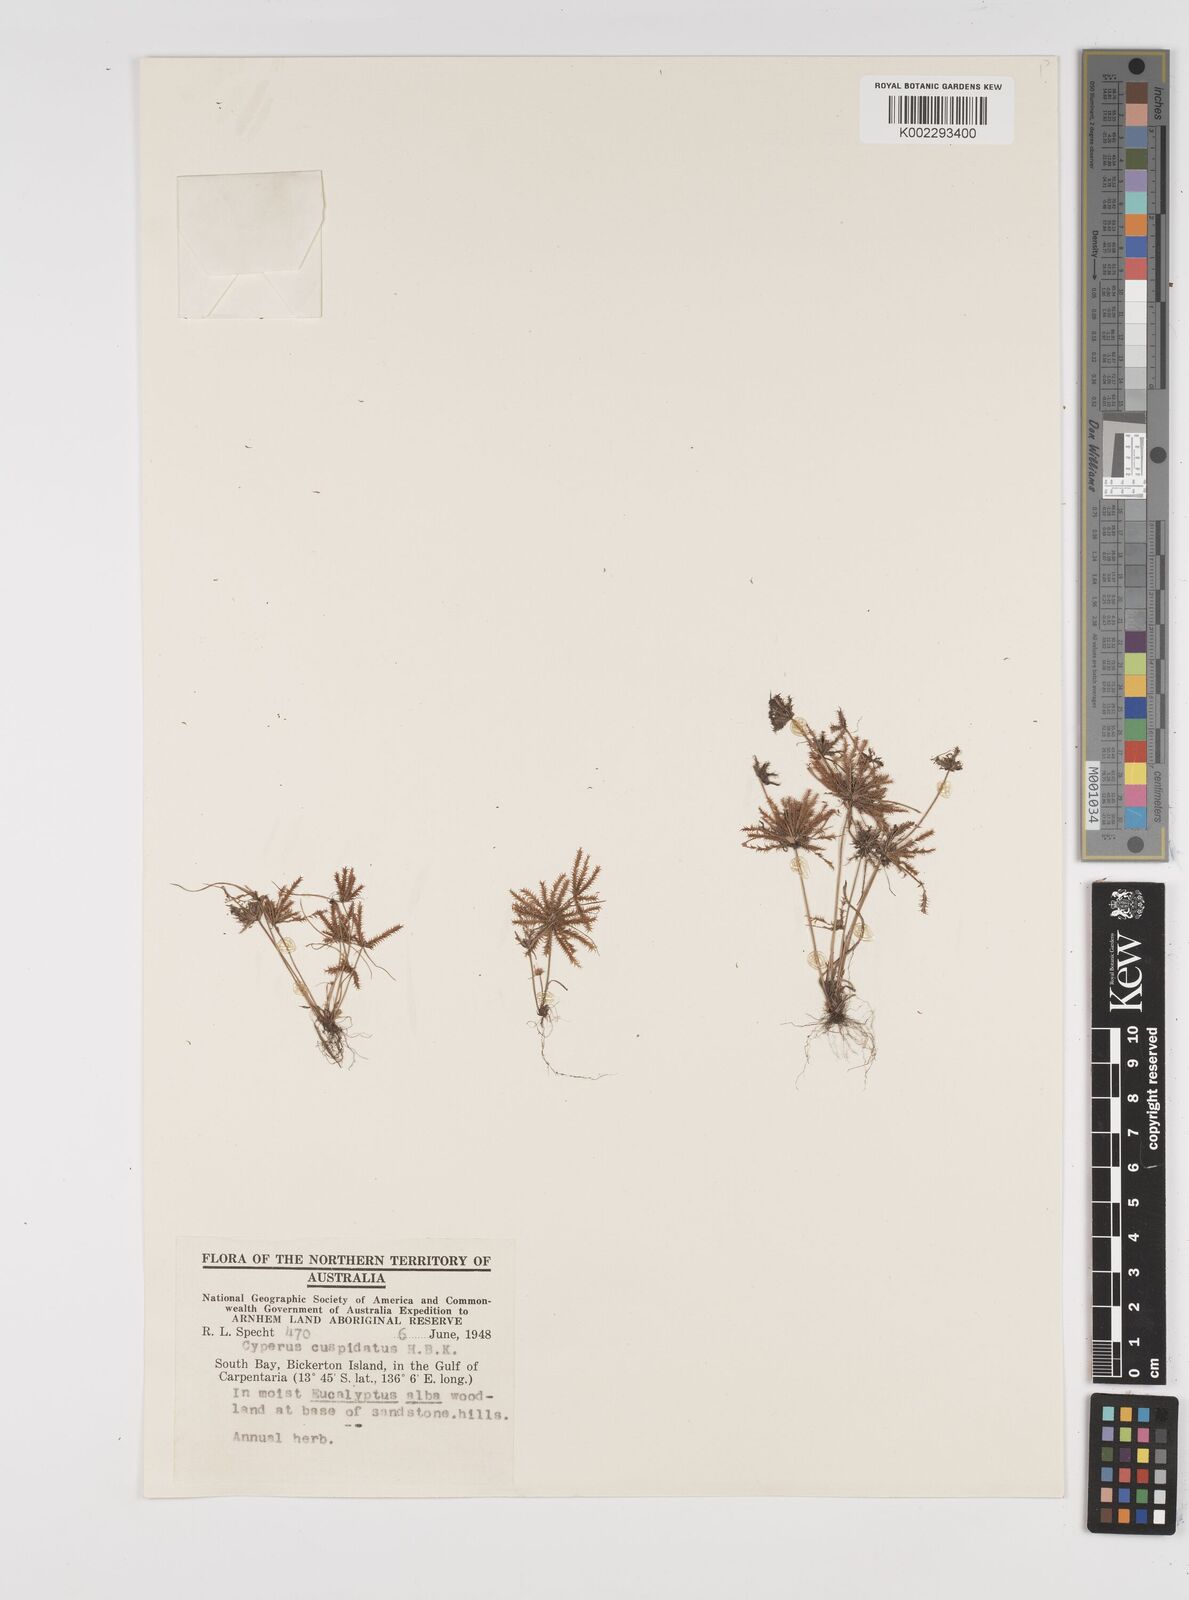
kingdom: Plantae
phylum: Tracheophyta
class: Liliopsida
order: Poales
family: Cyperaceae
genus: Cyperus
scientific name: Cyperus cuspidatus
